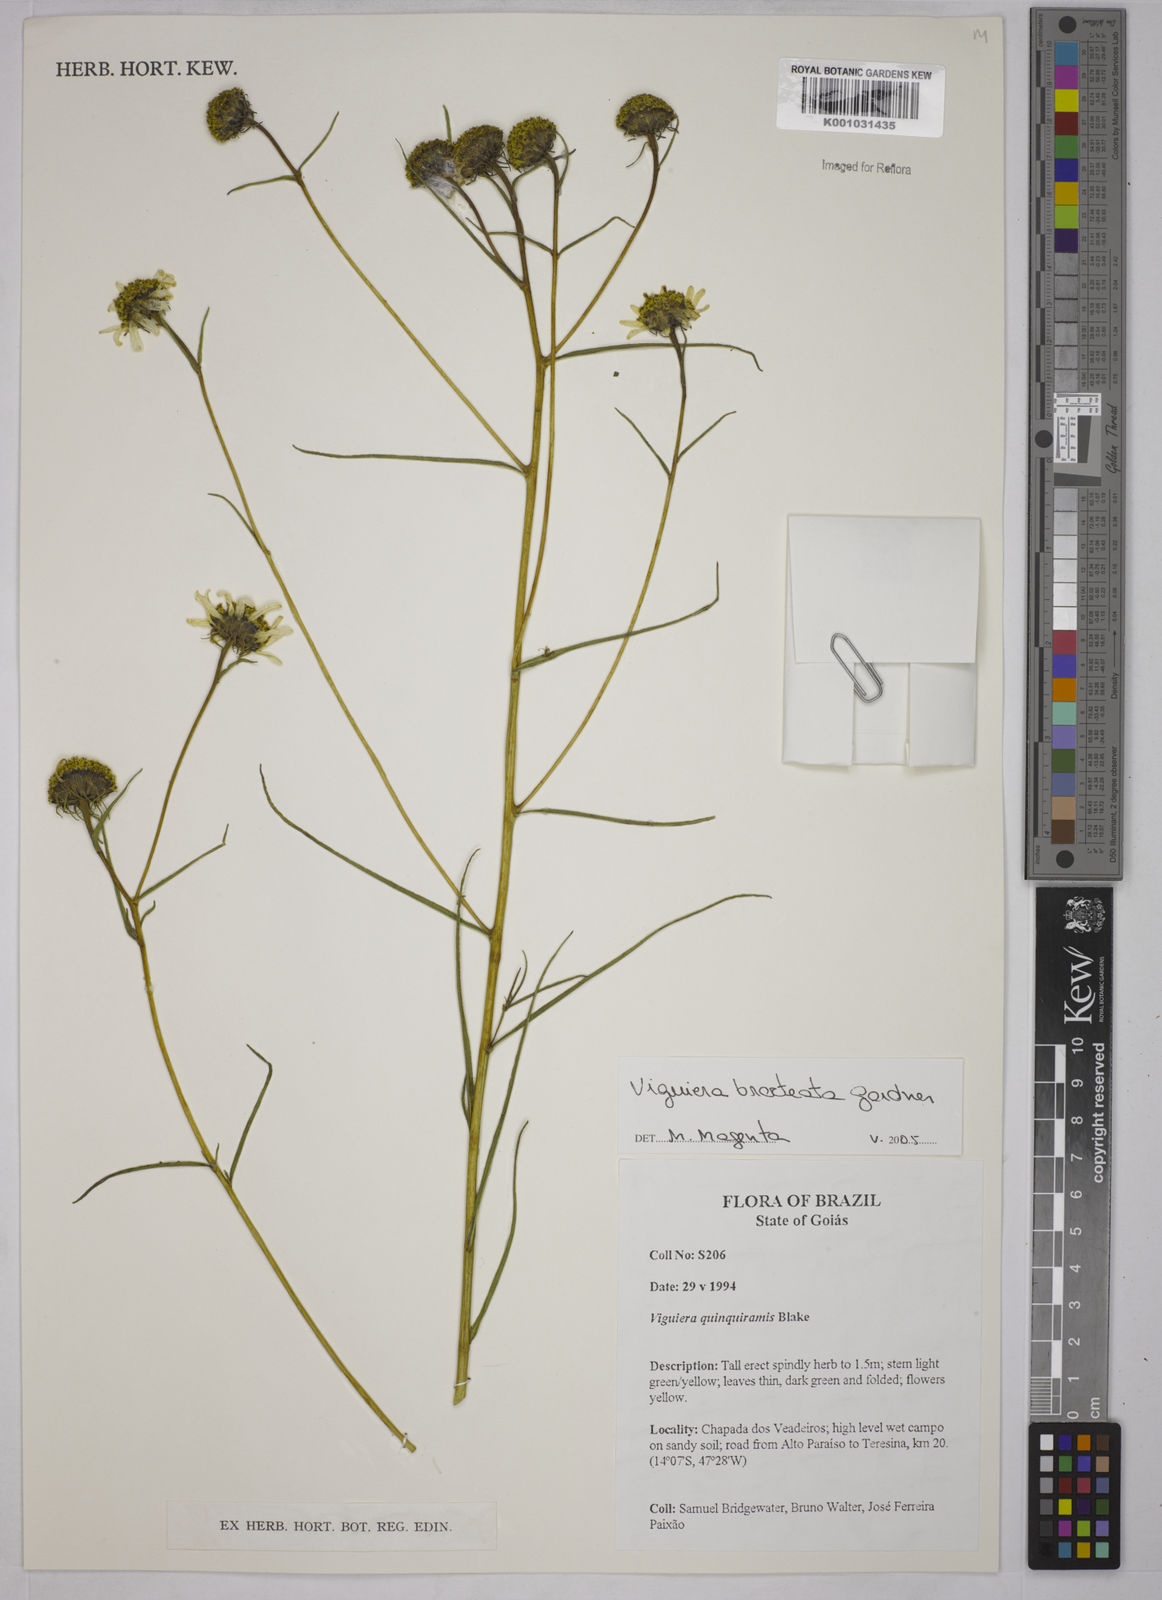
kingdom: Plantae
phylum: Tracheophyta
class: Magnoliopsida
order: Asterales
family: Asteraceae
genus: Aldama
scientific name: Aldama bracteata
